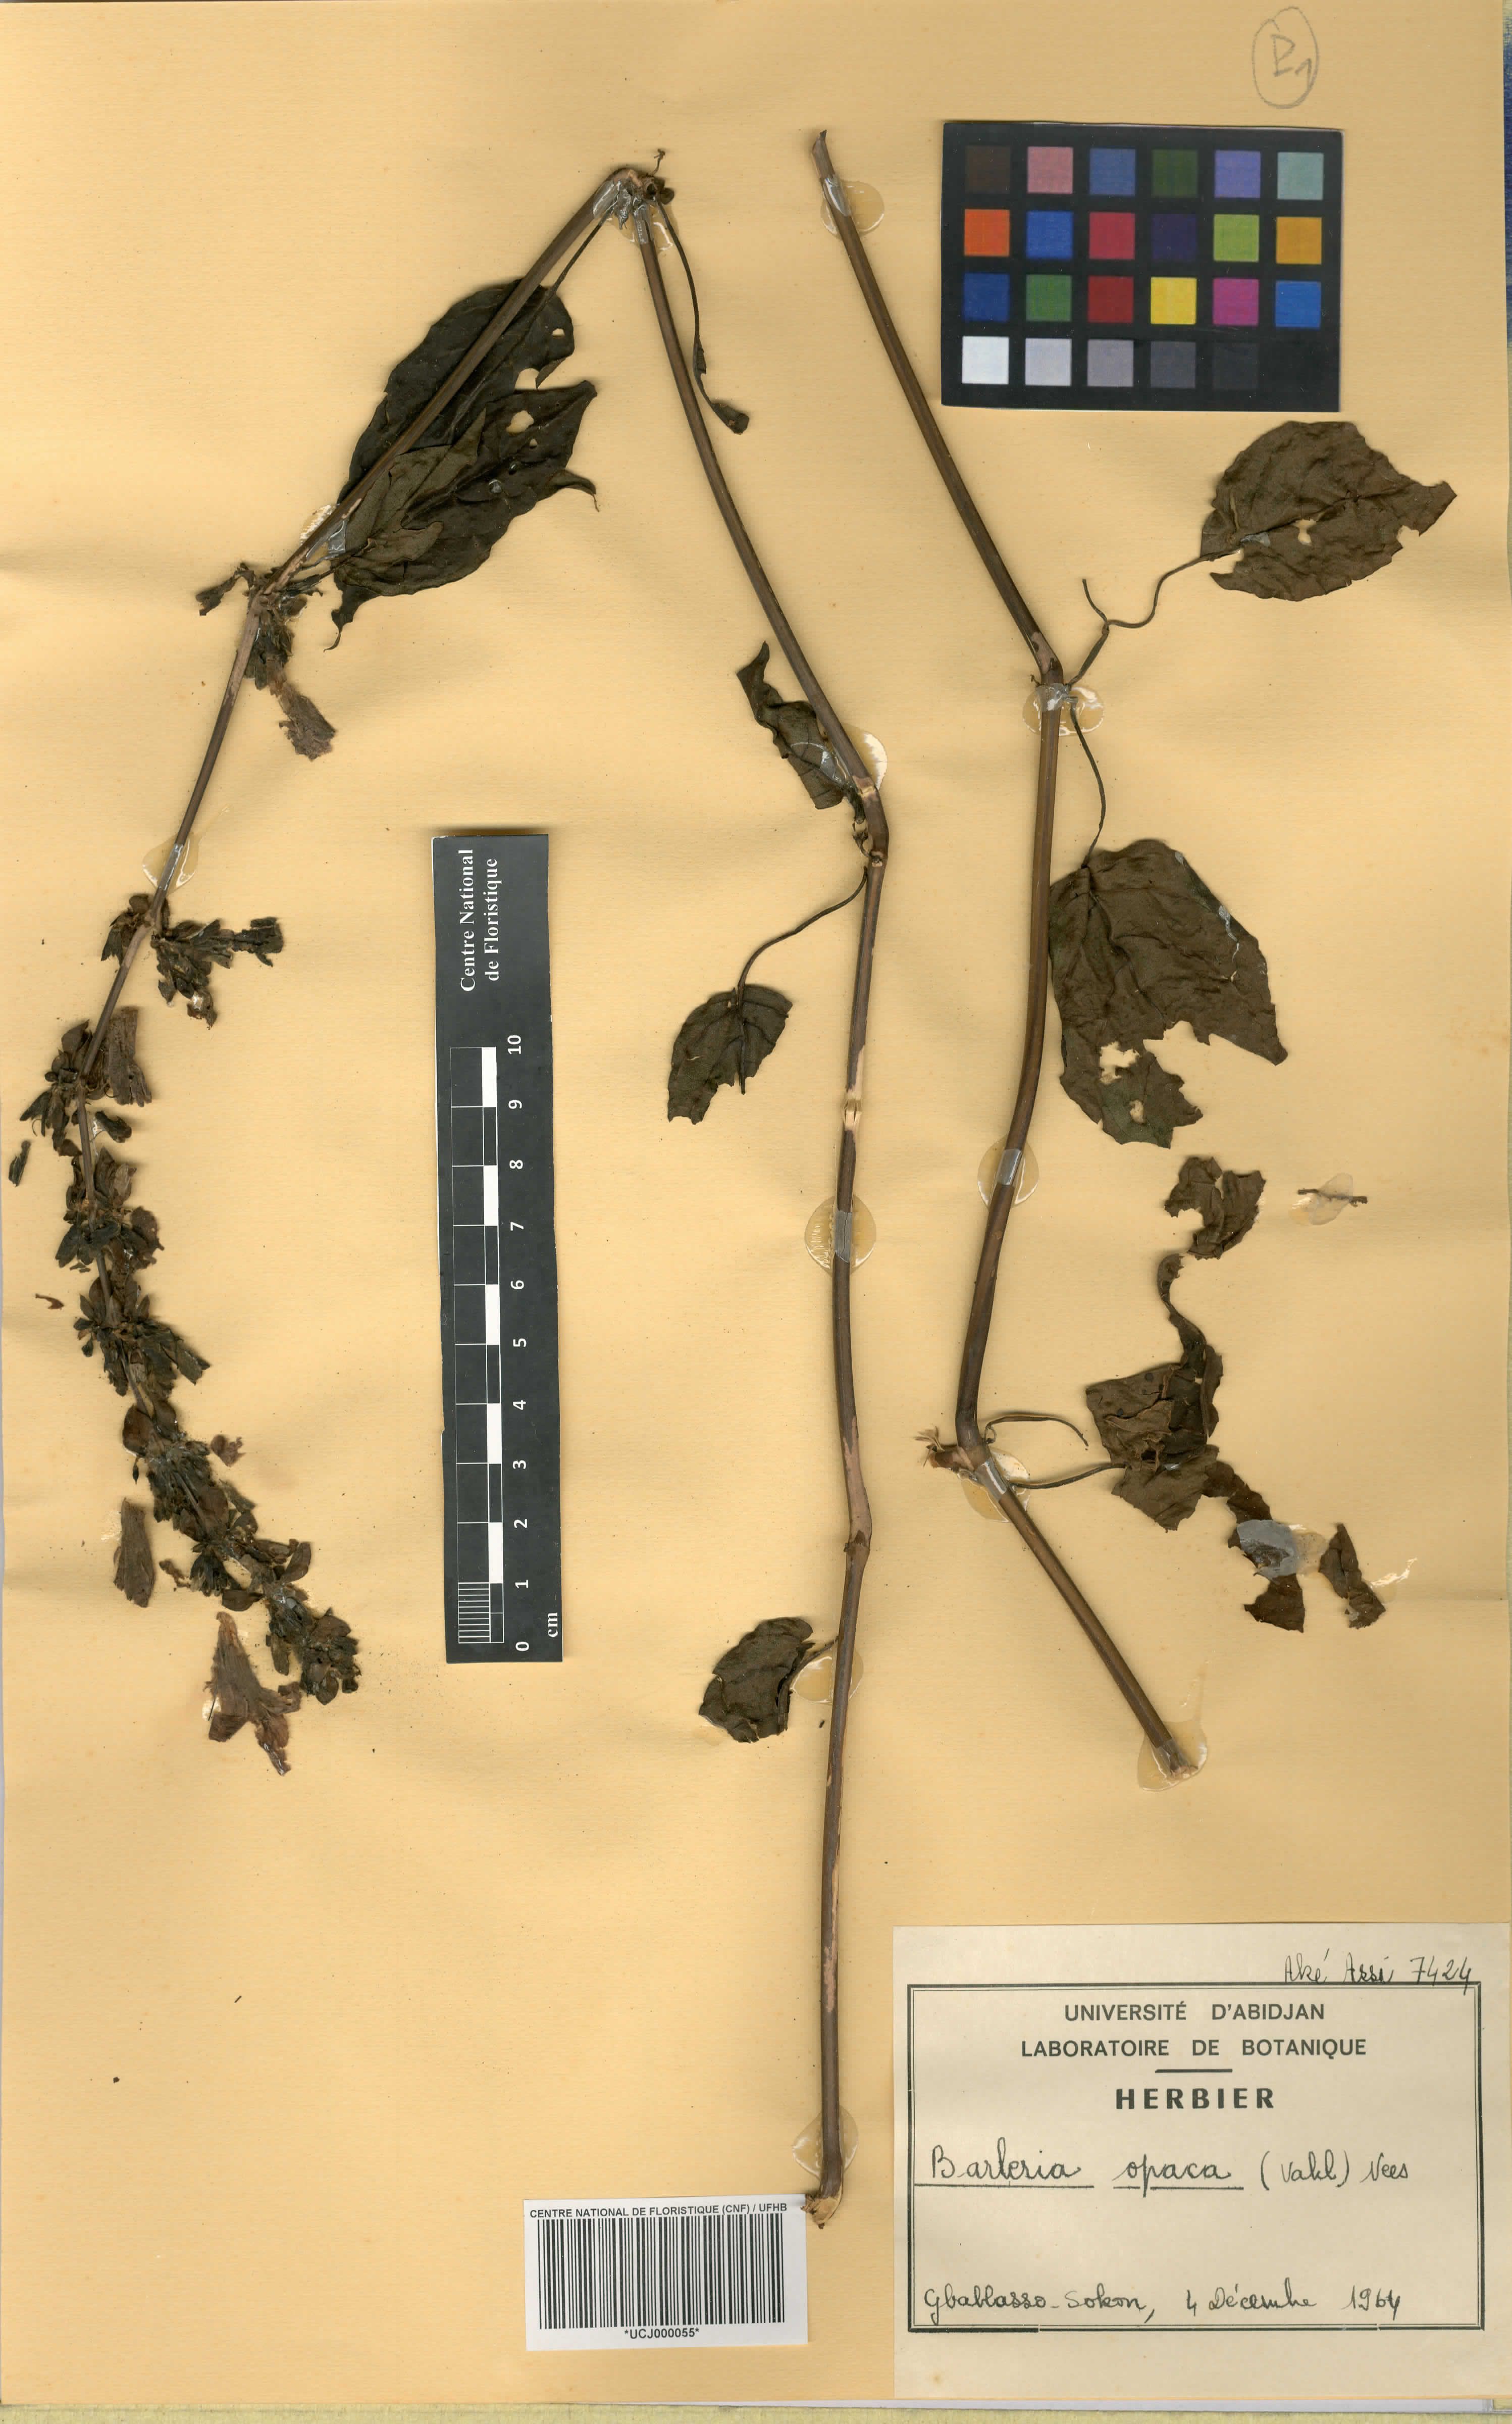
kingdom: Plantae
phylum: Tracheophyta
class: Magnoliopsida
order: Lamiales
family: Acanthaceae
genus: Barleria
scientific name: Barleria opaca
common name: Kwahu
